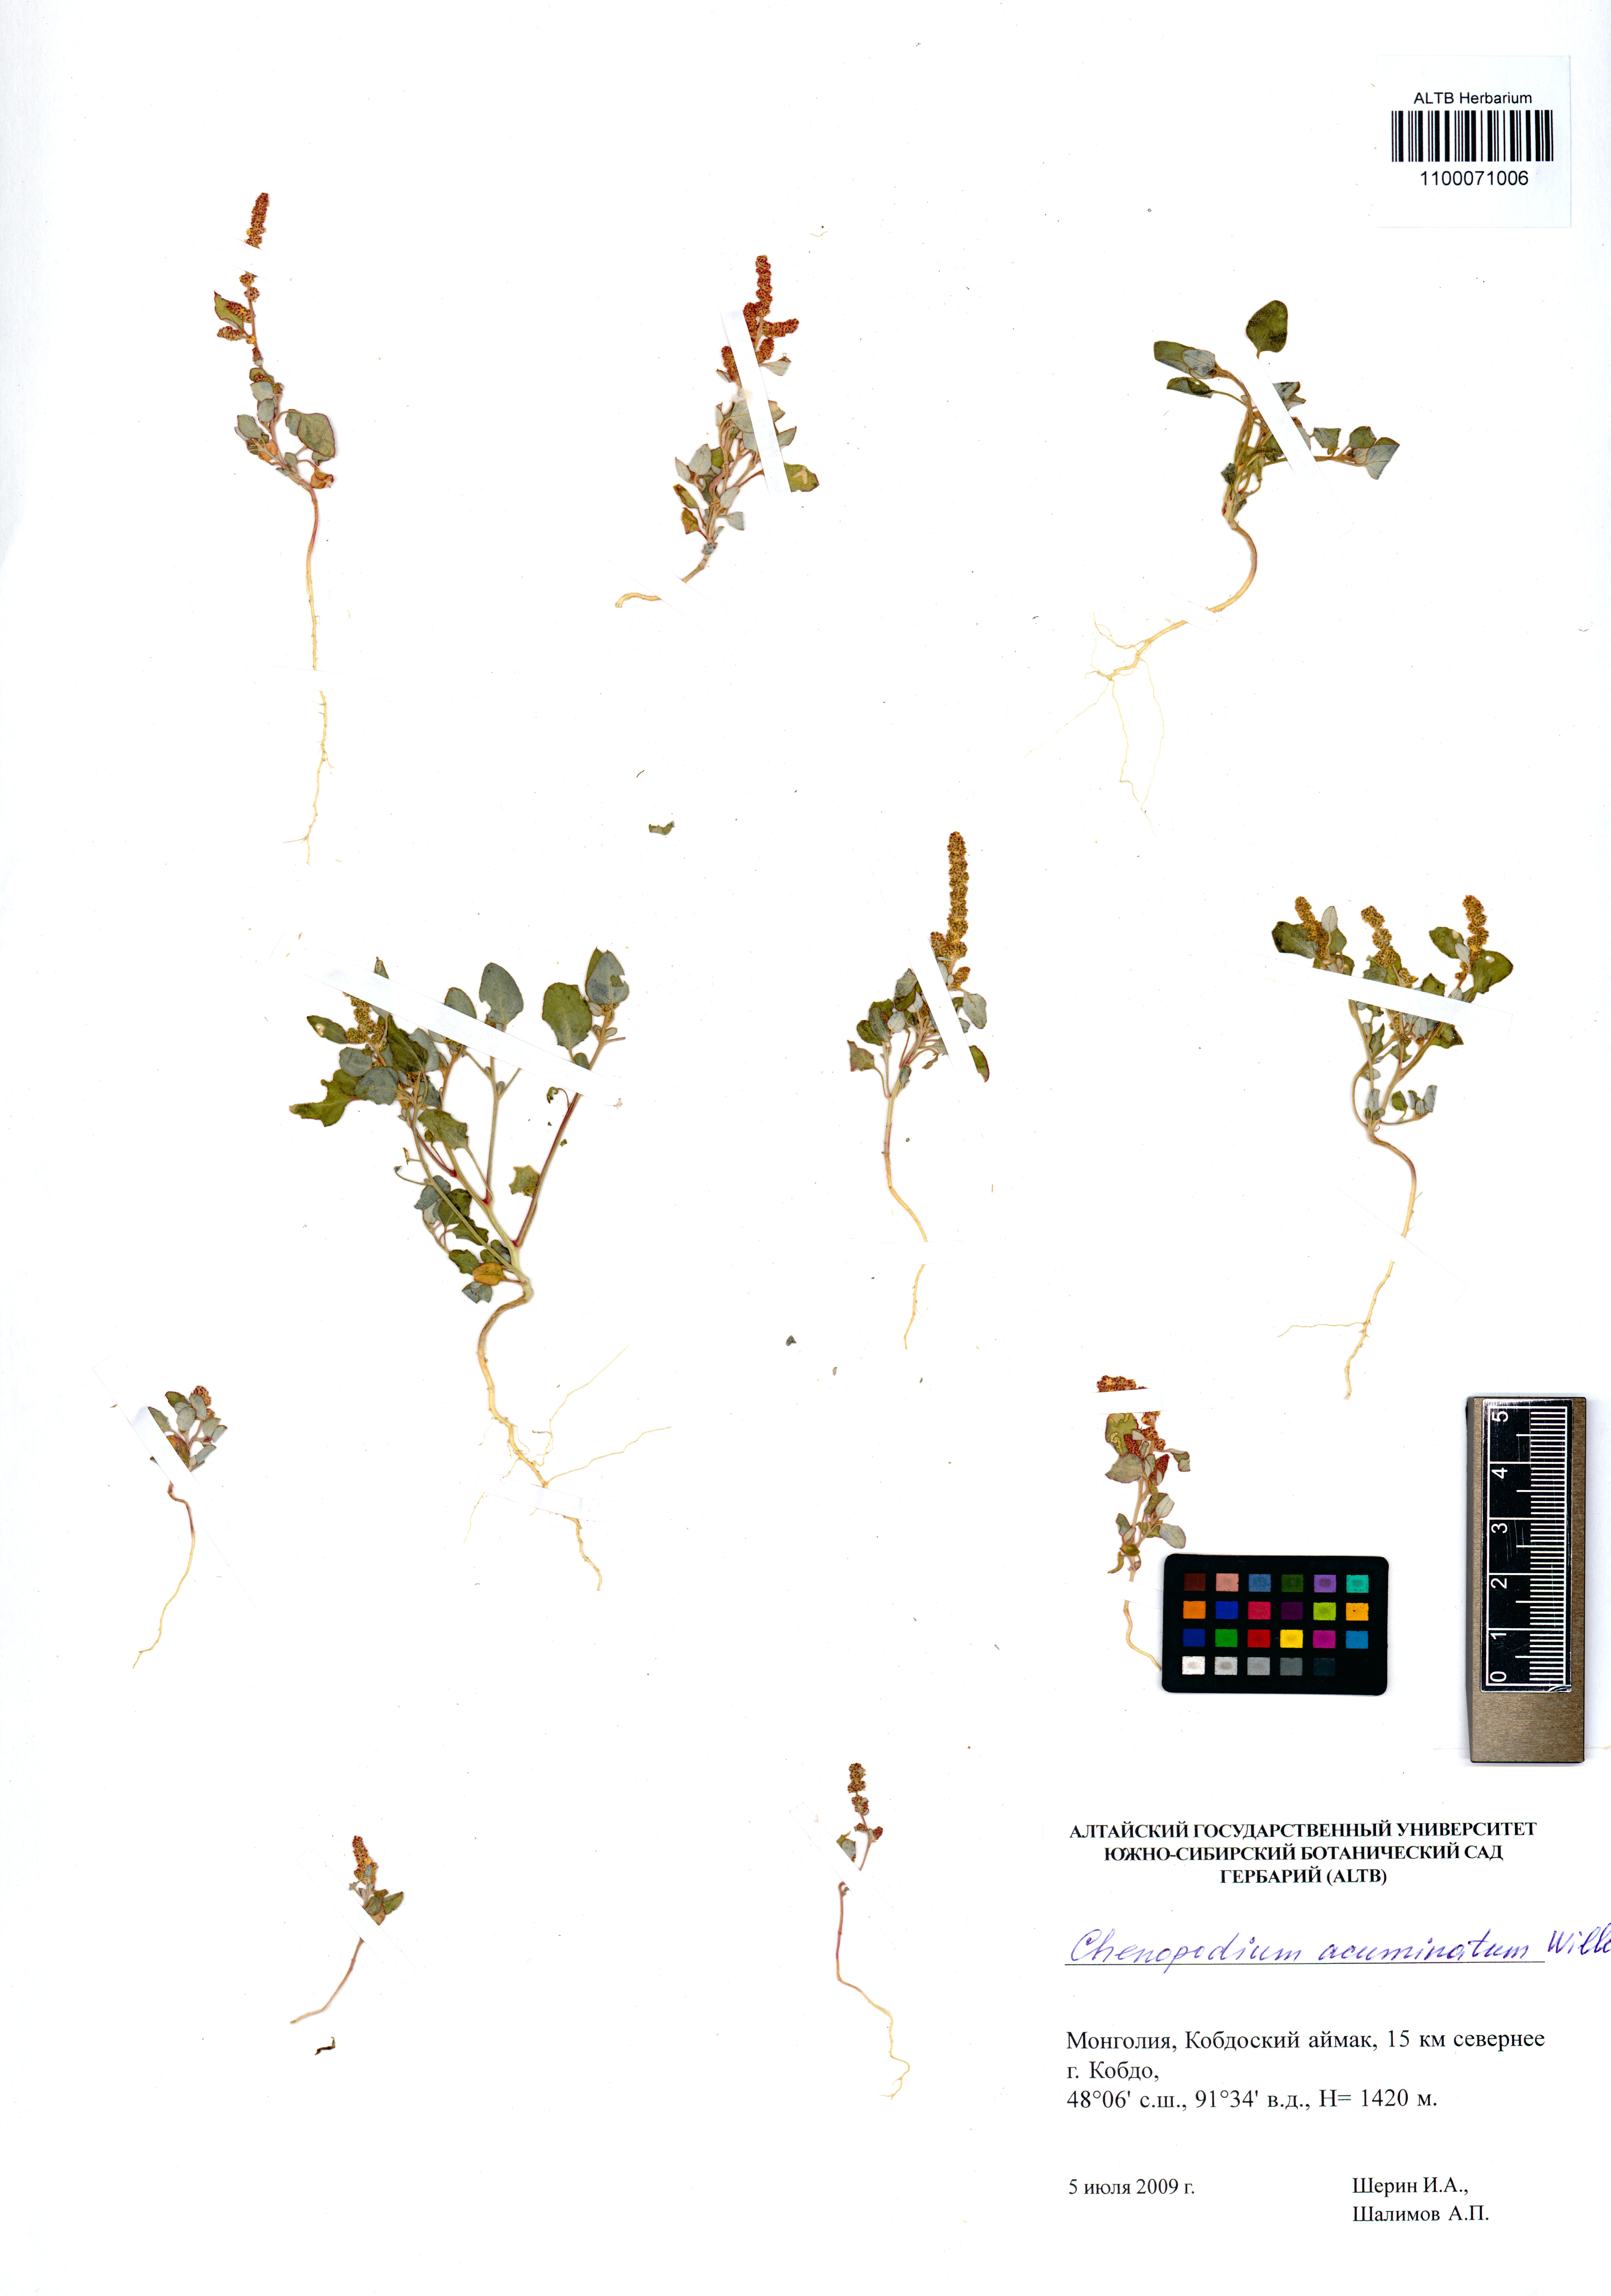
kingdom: Plantae
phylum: Tracheophyta
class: Magnoliopsida
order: Caryophyllales
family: Amaranthaceae
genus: Oxybasis
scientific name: Oxybasis rubra
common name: Red goosefoot
